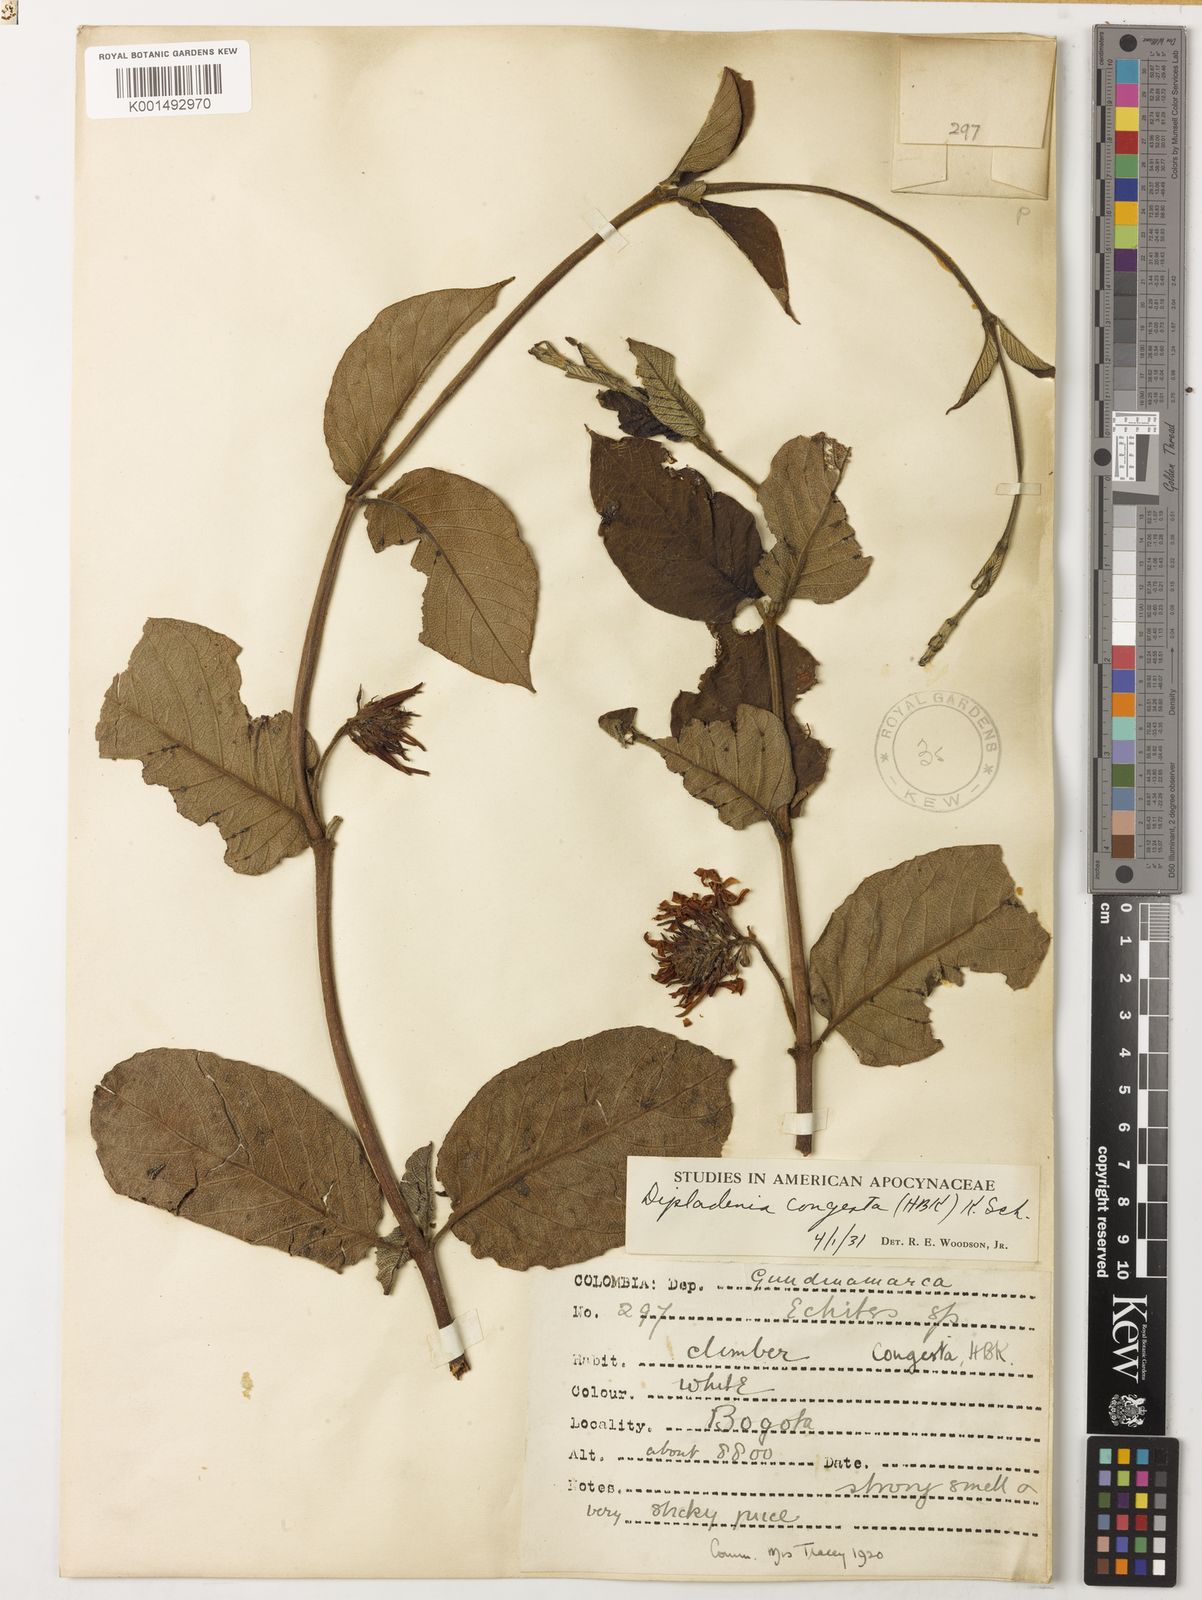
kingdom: Plantae
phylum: Tracheophyta
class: Magnoliopsida
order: Gentianales
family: Apocynaceae
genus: Mandevilla
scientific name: Mandevilla congesta
